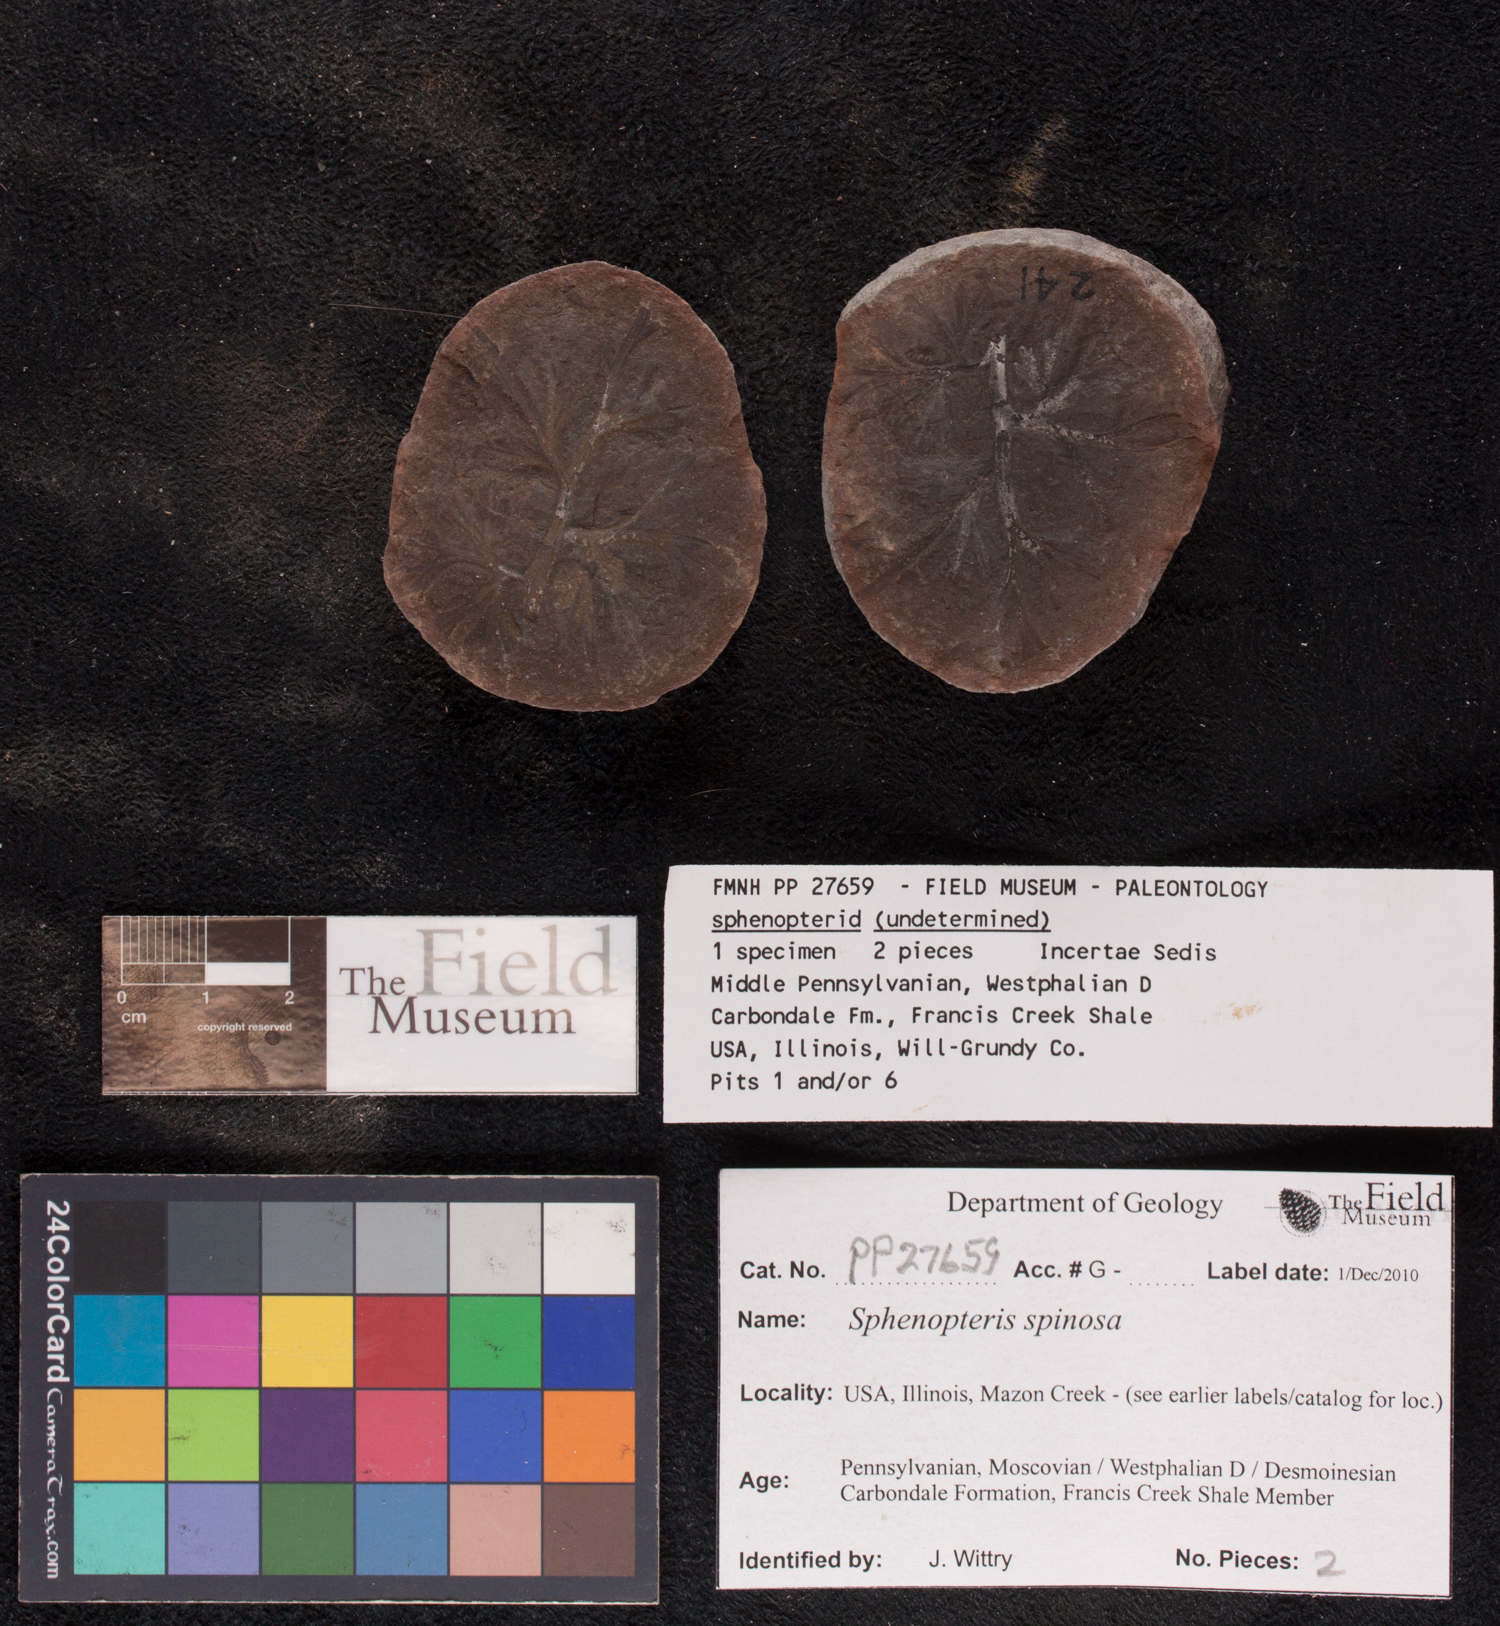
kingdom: Plantae
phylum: Tracheophyta
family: Lyginopteridaceae
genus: Sphenopteris
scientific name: Sphenopteris
